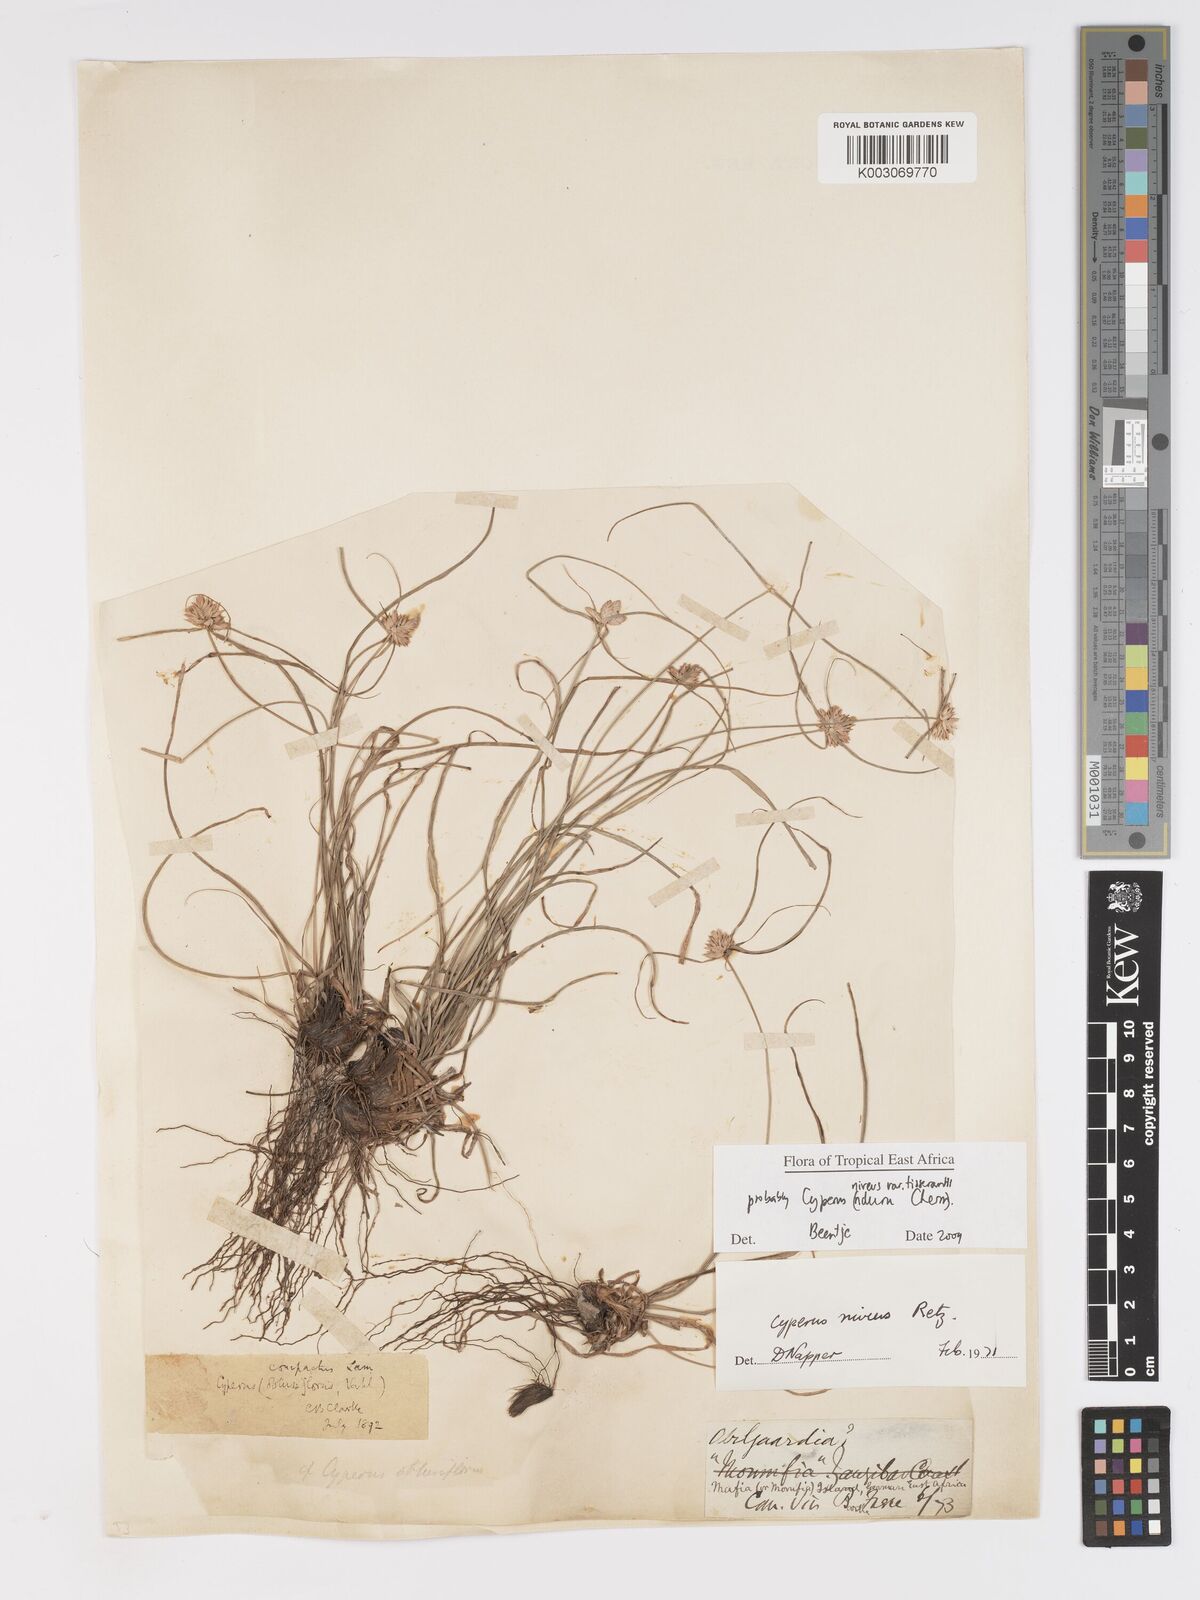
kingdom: Plantae
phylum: Tracheophyta
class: Liliopsida
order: Poales
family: Cyperaceae
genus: Cyperus
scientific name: Cyperus niveus
